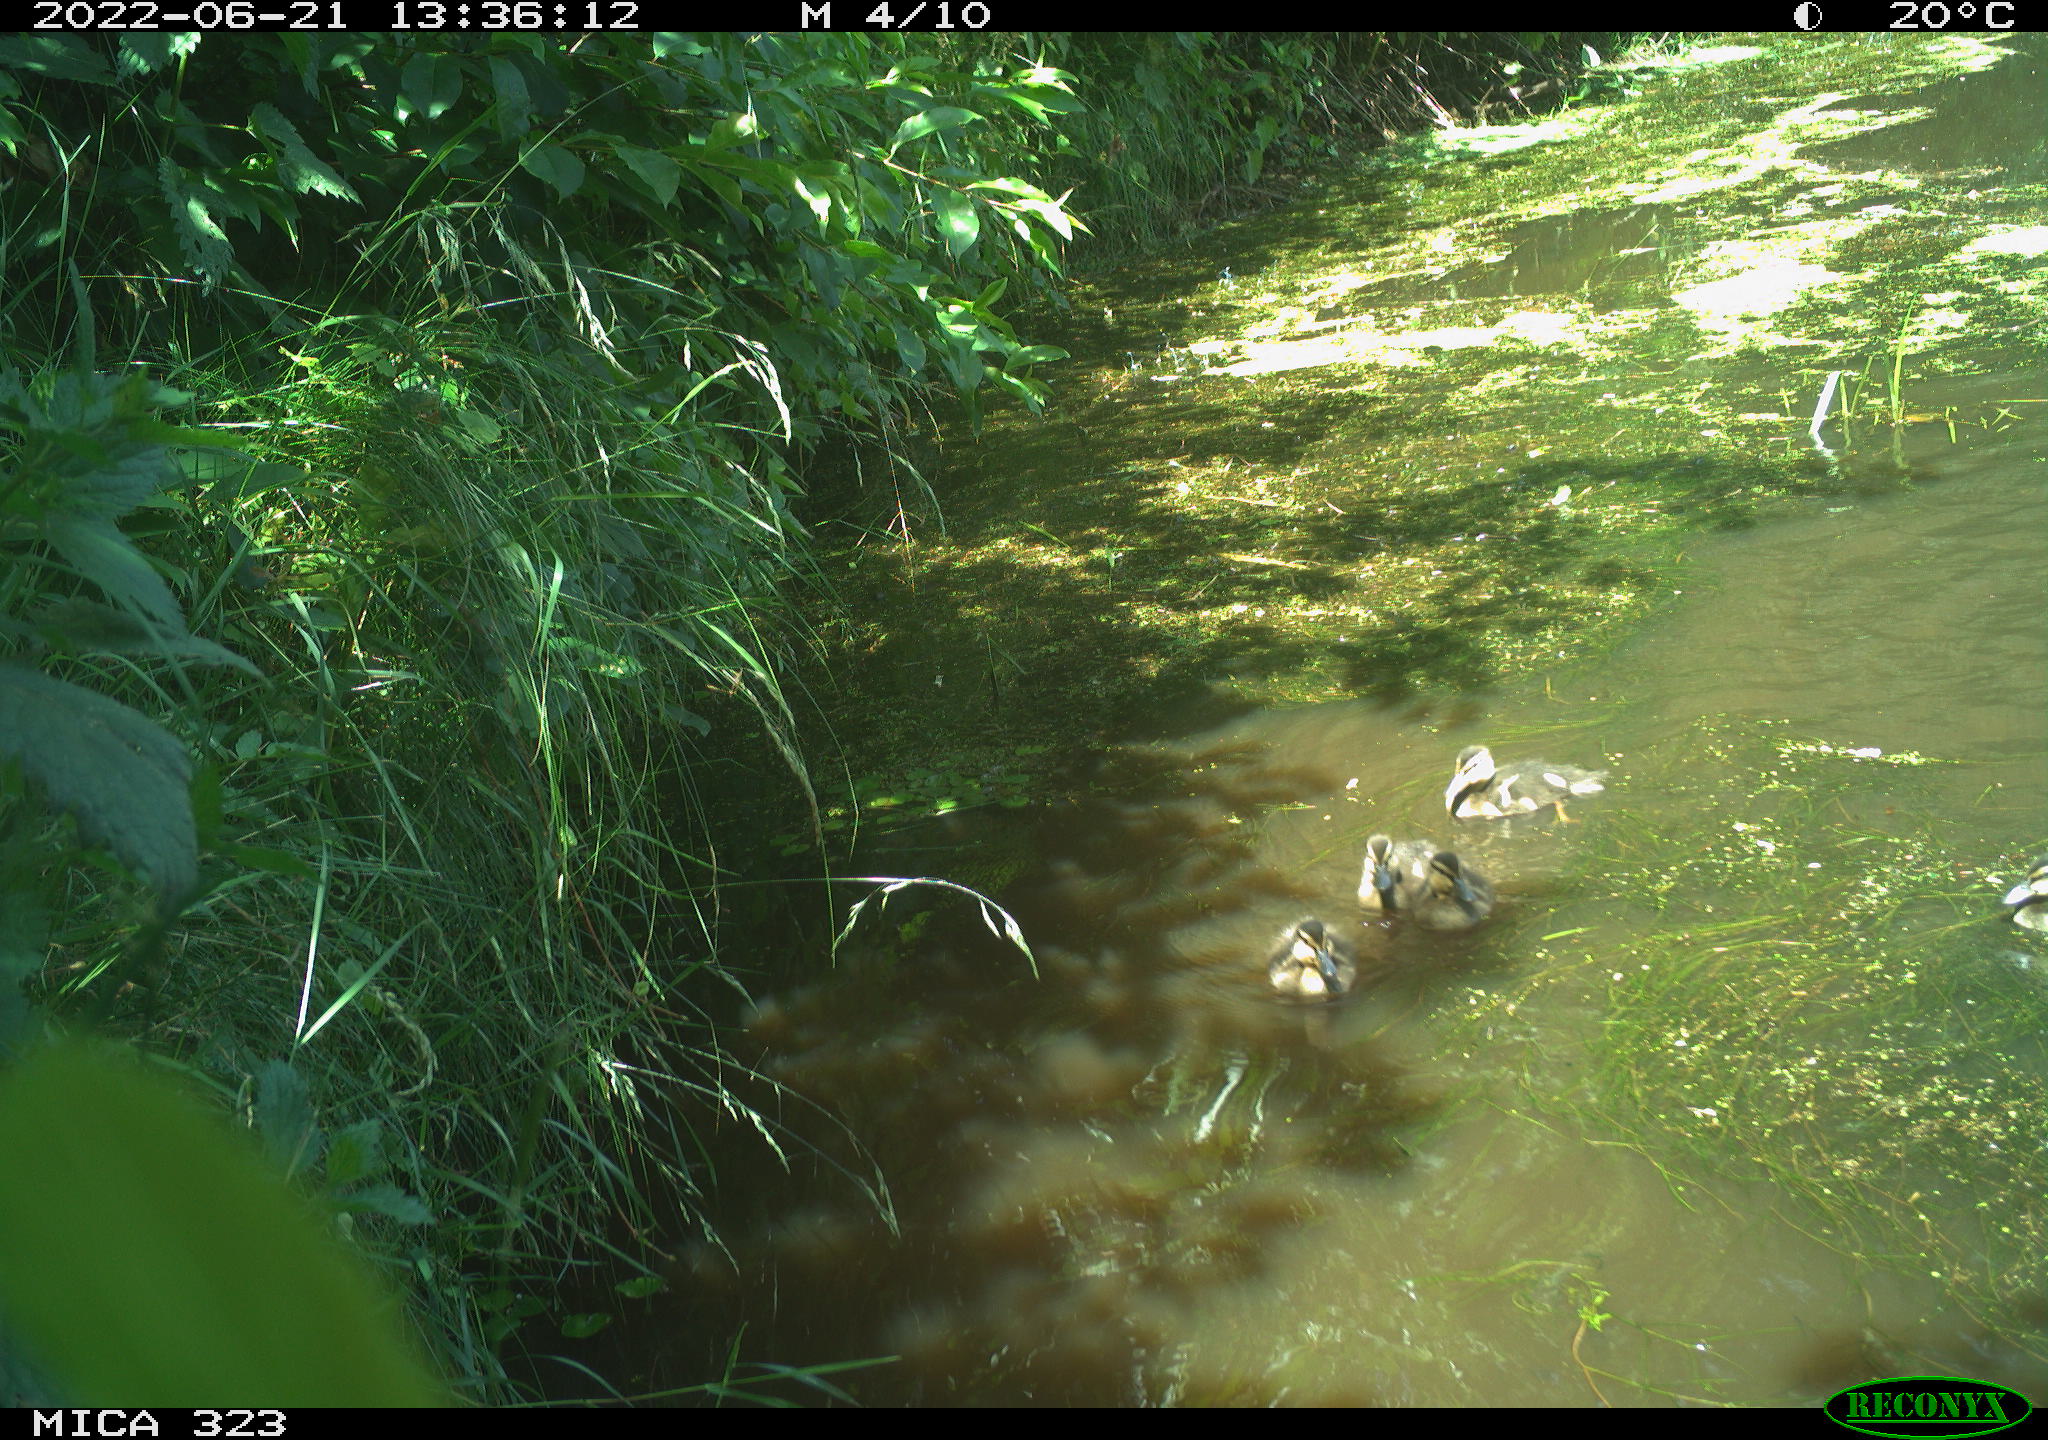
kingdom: Animalia
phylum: Chordata
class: Aves
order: Anseriformes
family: Anatidae
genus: Anas
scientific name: Anas platyrhynchos
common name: Mallard
